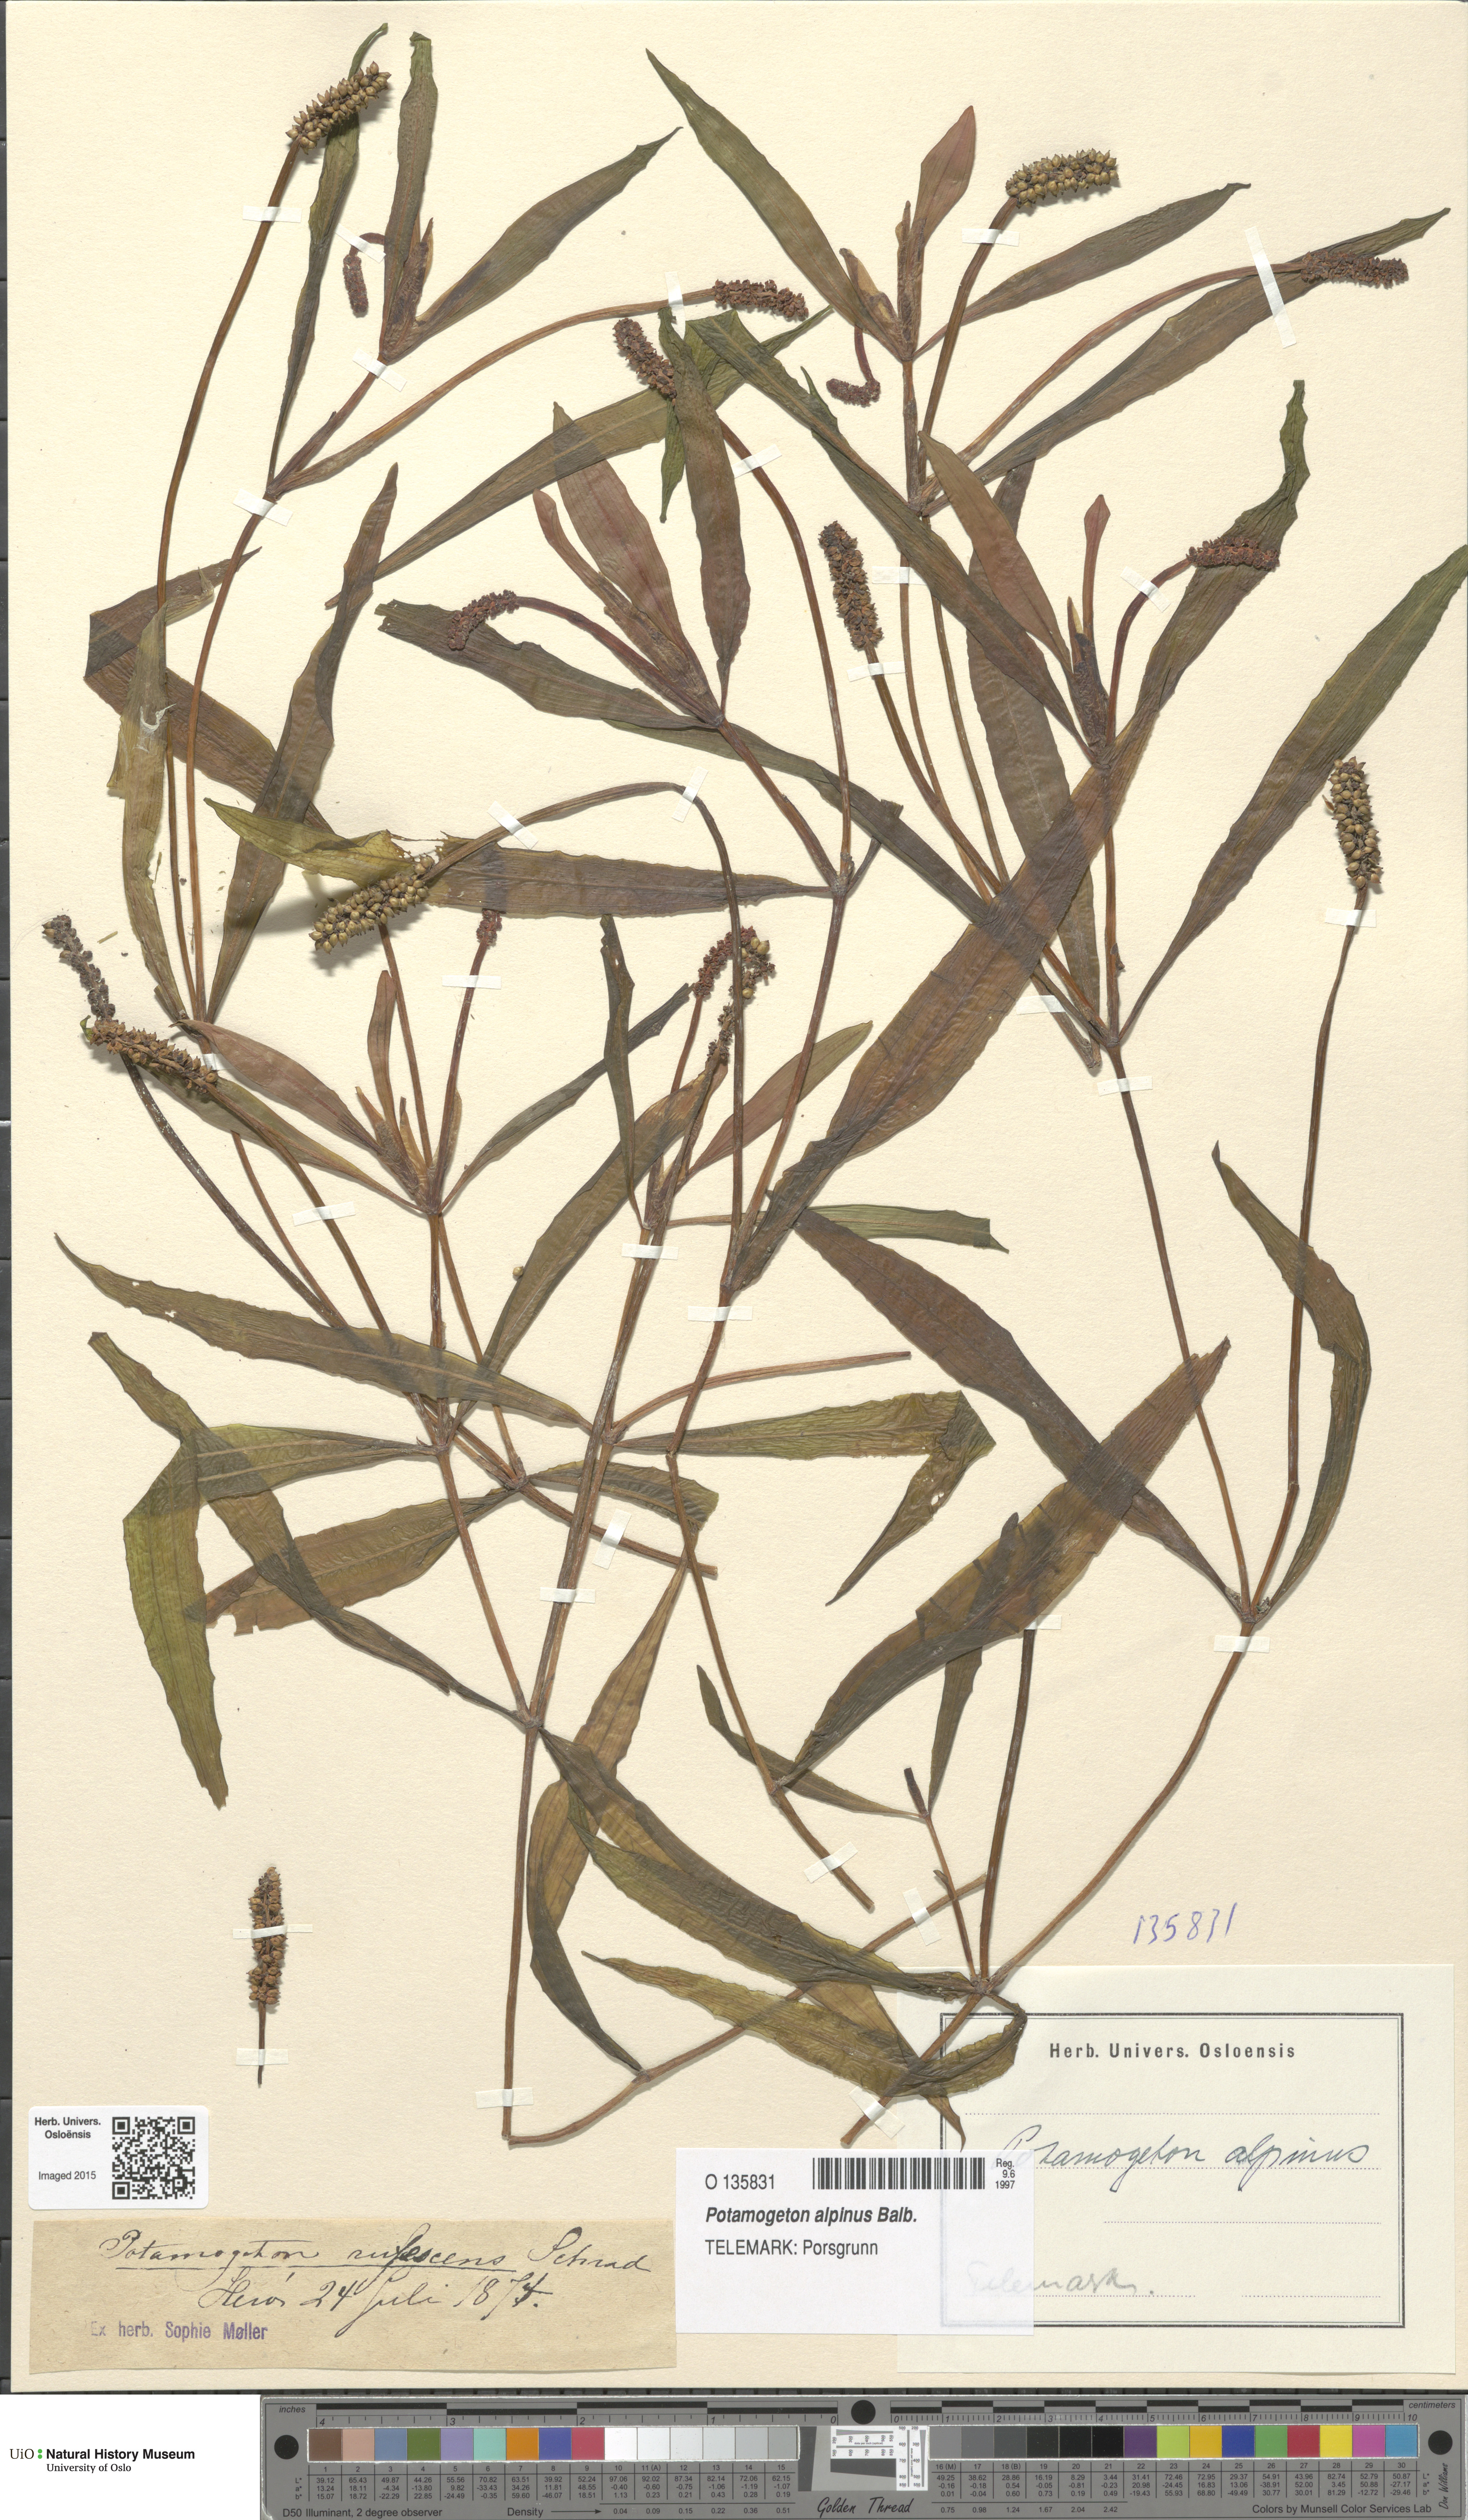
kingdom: Plantae
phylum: Tracheophyta
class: Liliopsida
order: Alismatales
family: Potamogetonaceae
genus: Potamogeton
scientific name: Potamogeton alpinus
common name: Red pondweed
